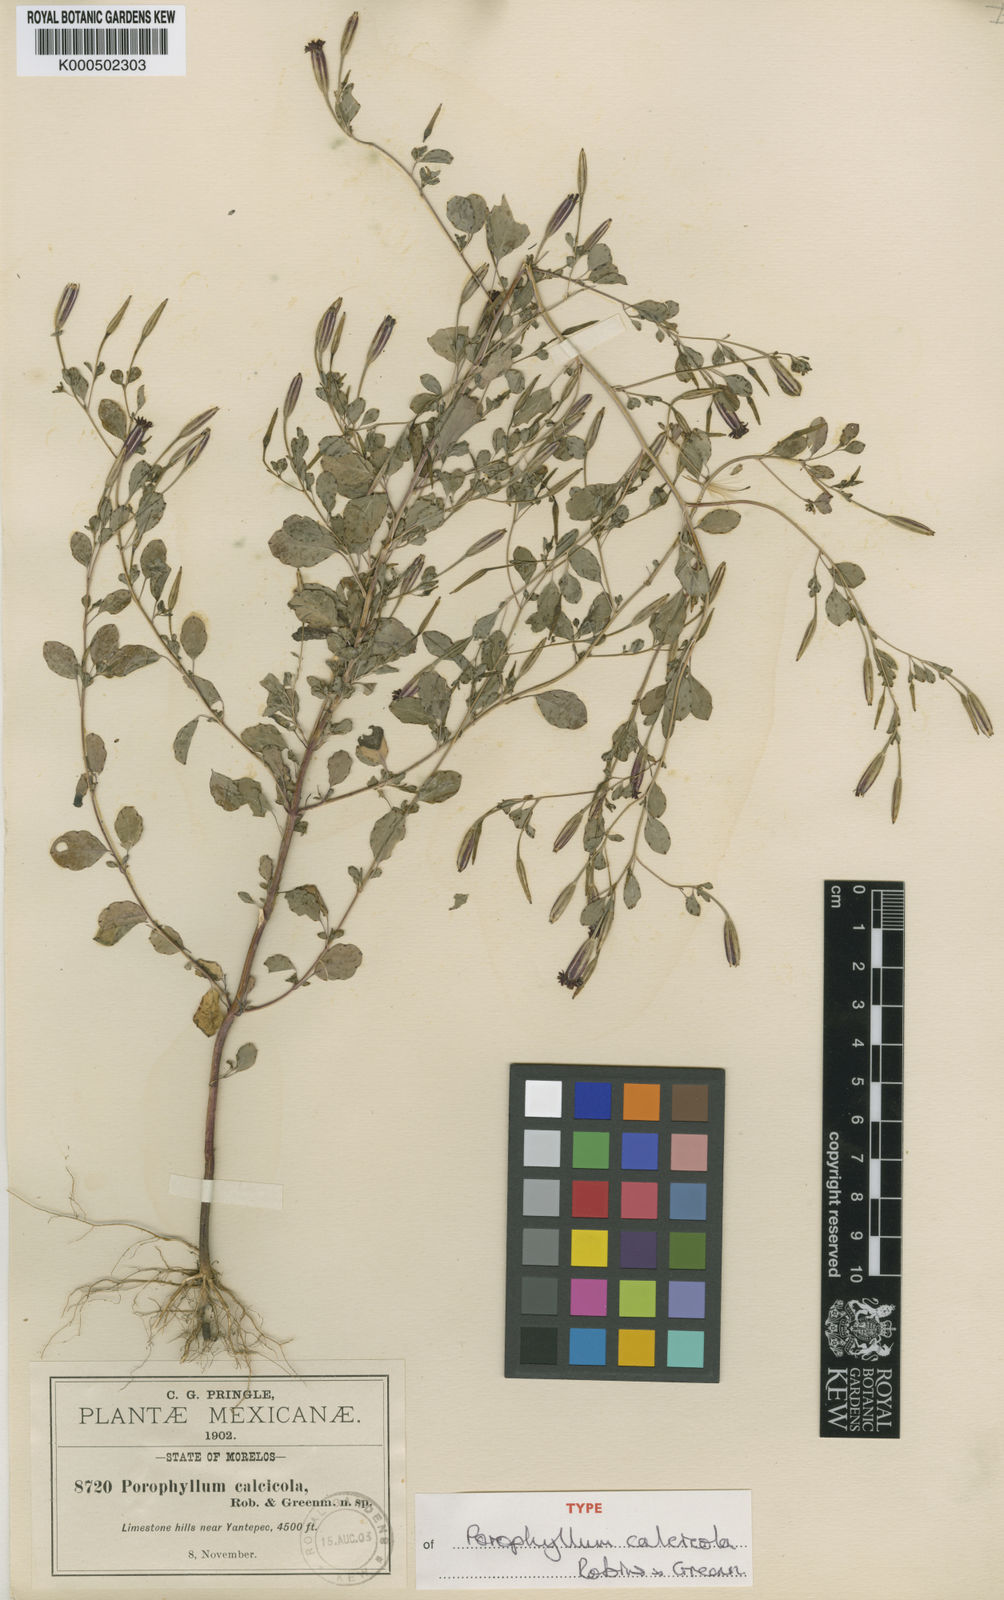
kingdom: Plantae
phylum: Tracheophyta
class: Magnoliopsida
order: Asterales
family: Asteraceae
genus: Porophyllum
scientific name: Porophyllum calcicola
